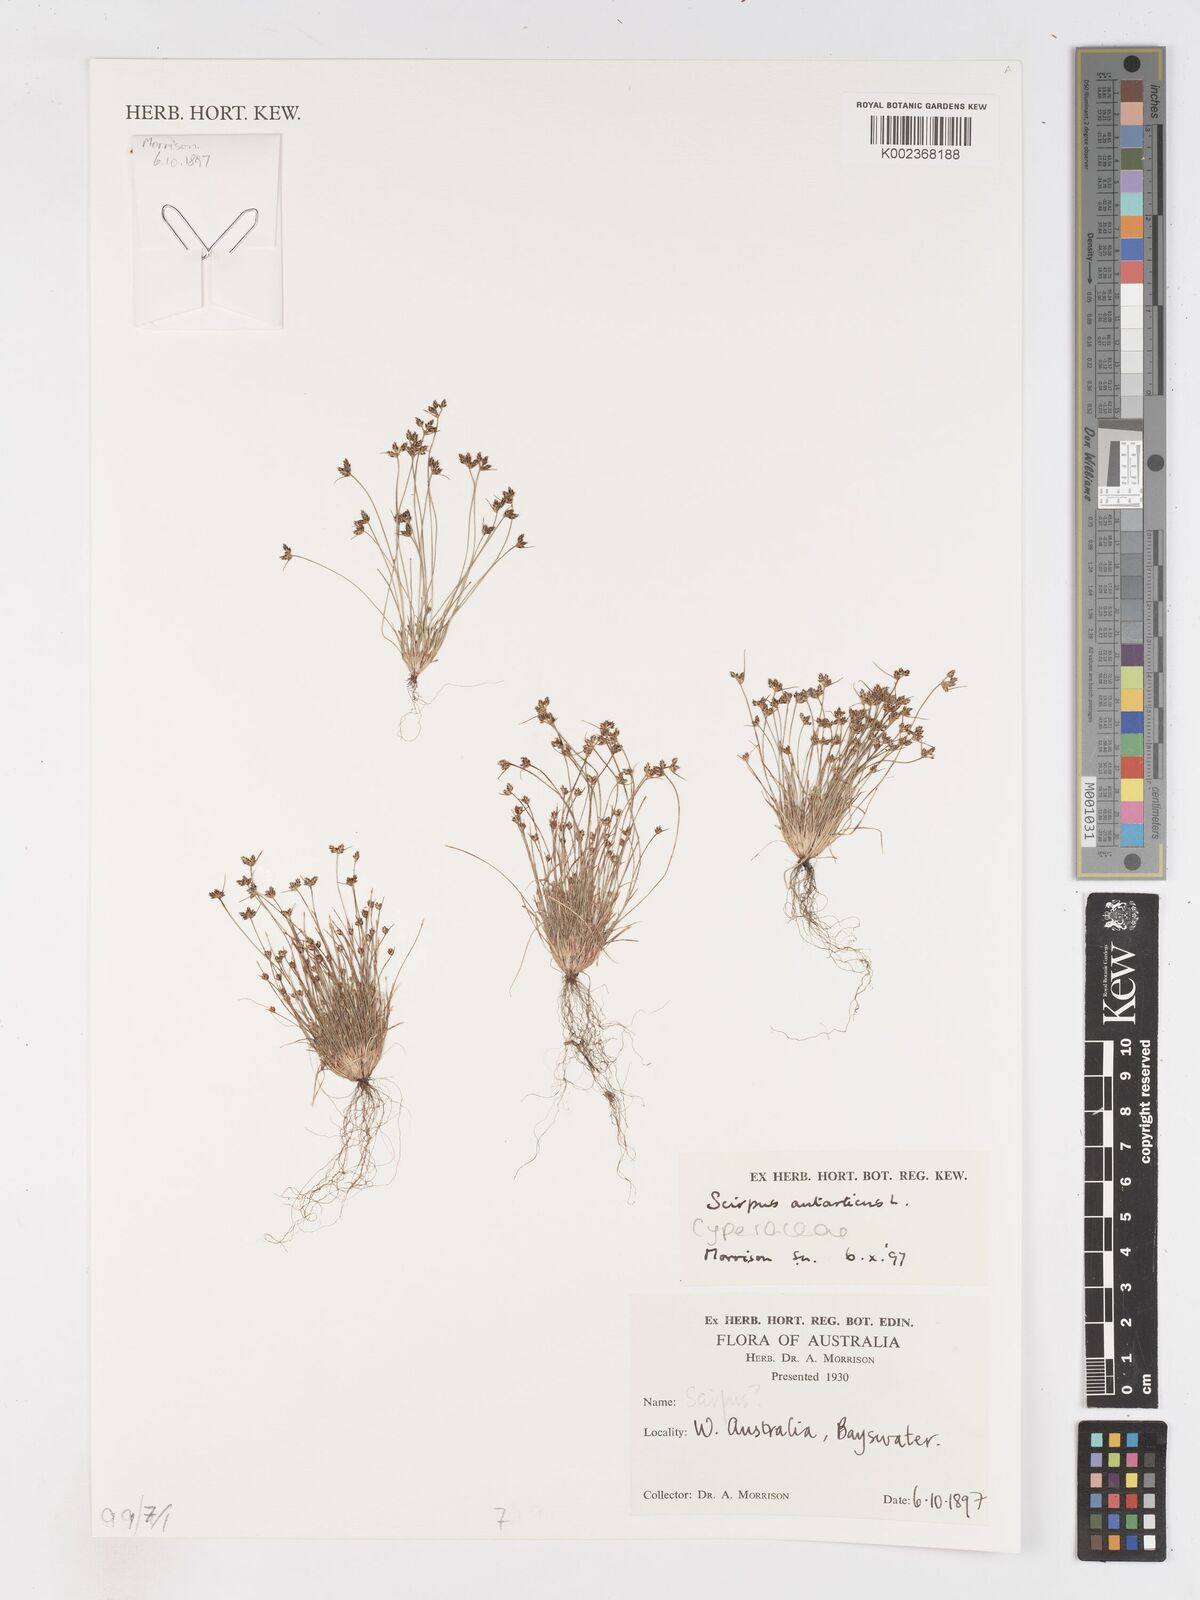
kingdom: Plantae
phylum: Tracheophyta
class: Liliopsida
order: Poales
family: Cyperaceae
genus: Isolepis
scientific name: Isolepis antarctica
